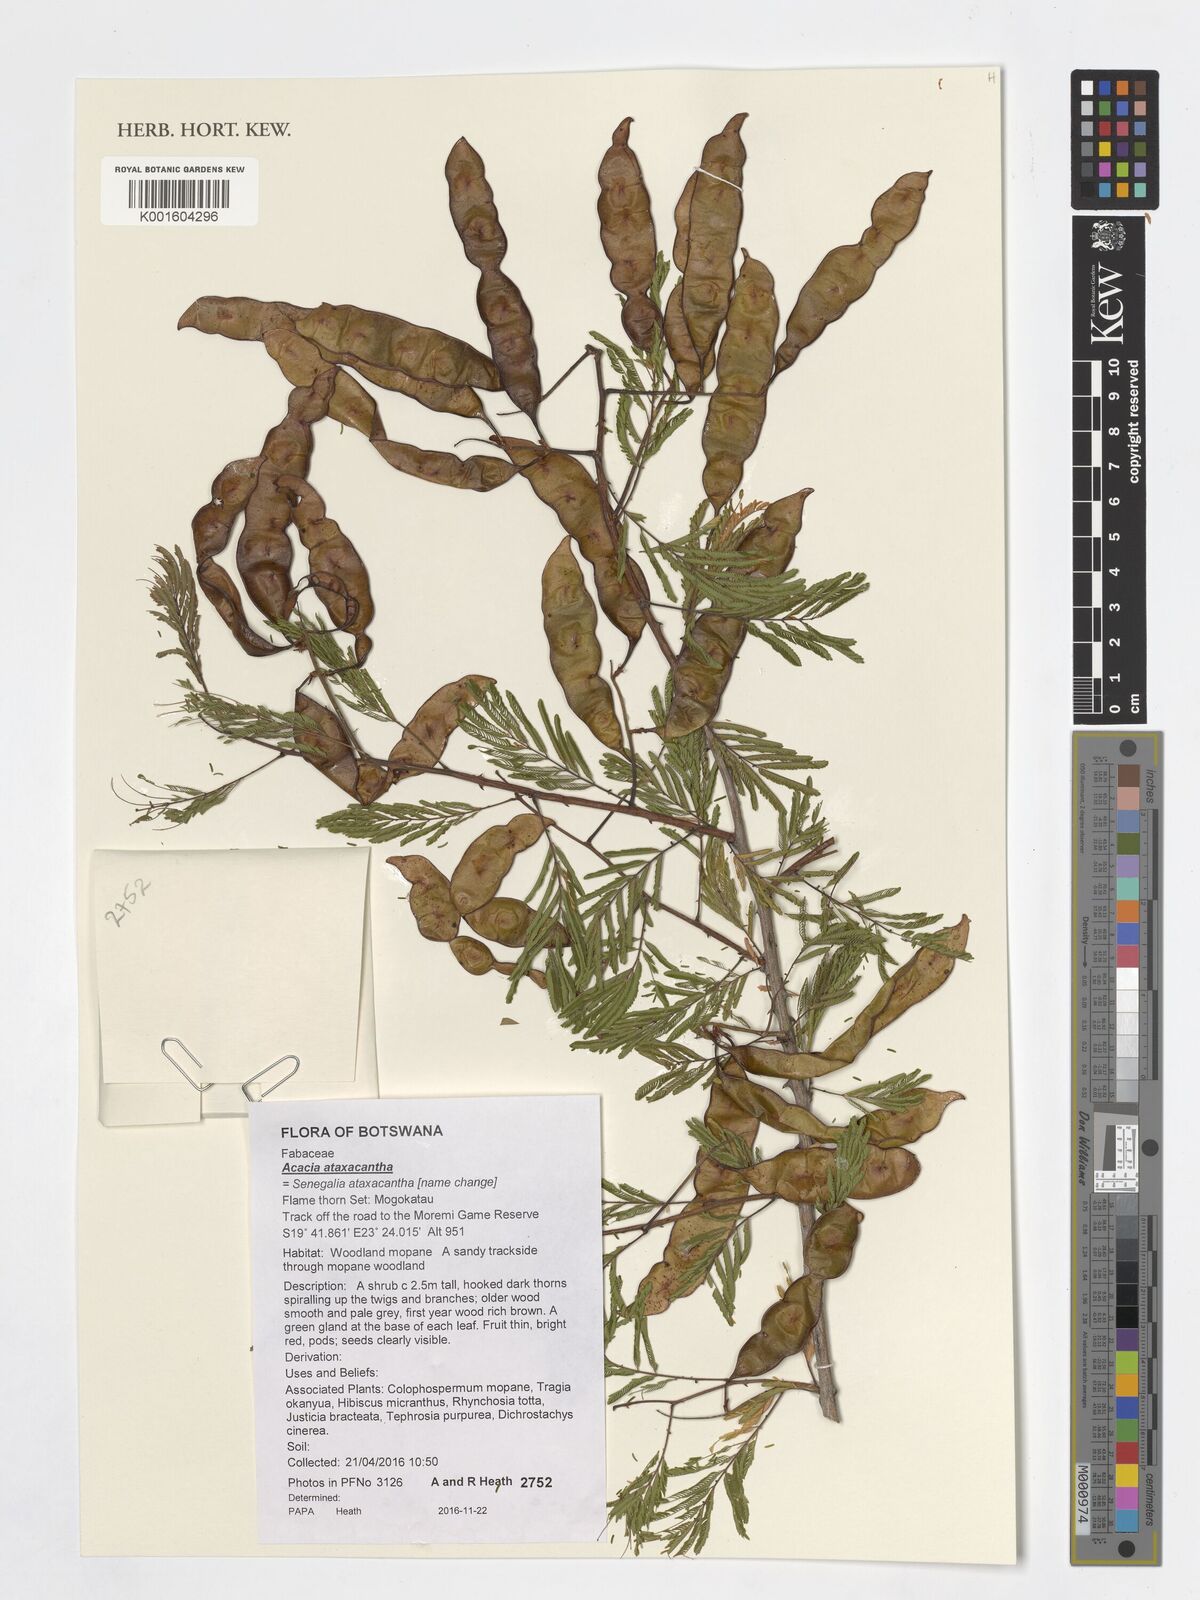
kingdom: Plantae
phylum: Tracheophyta
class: Magnoliopsida
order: Fabales
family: Fabaceae
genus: Senegalia
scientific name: Senegalia ataxacantha
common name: Flame acacia
